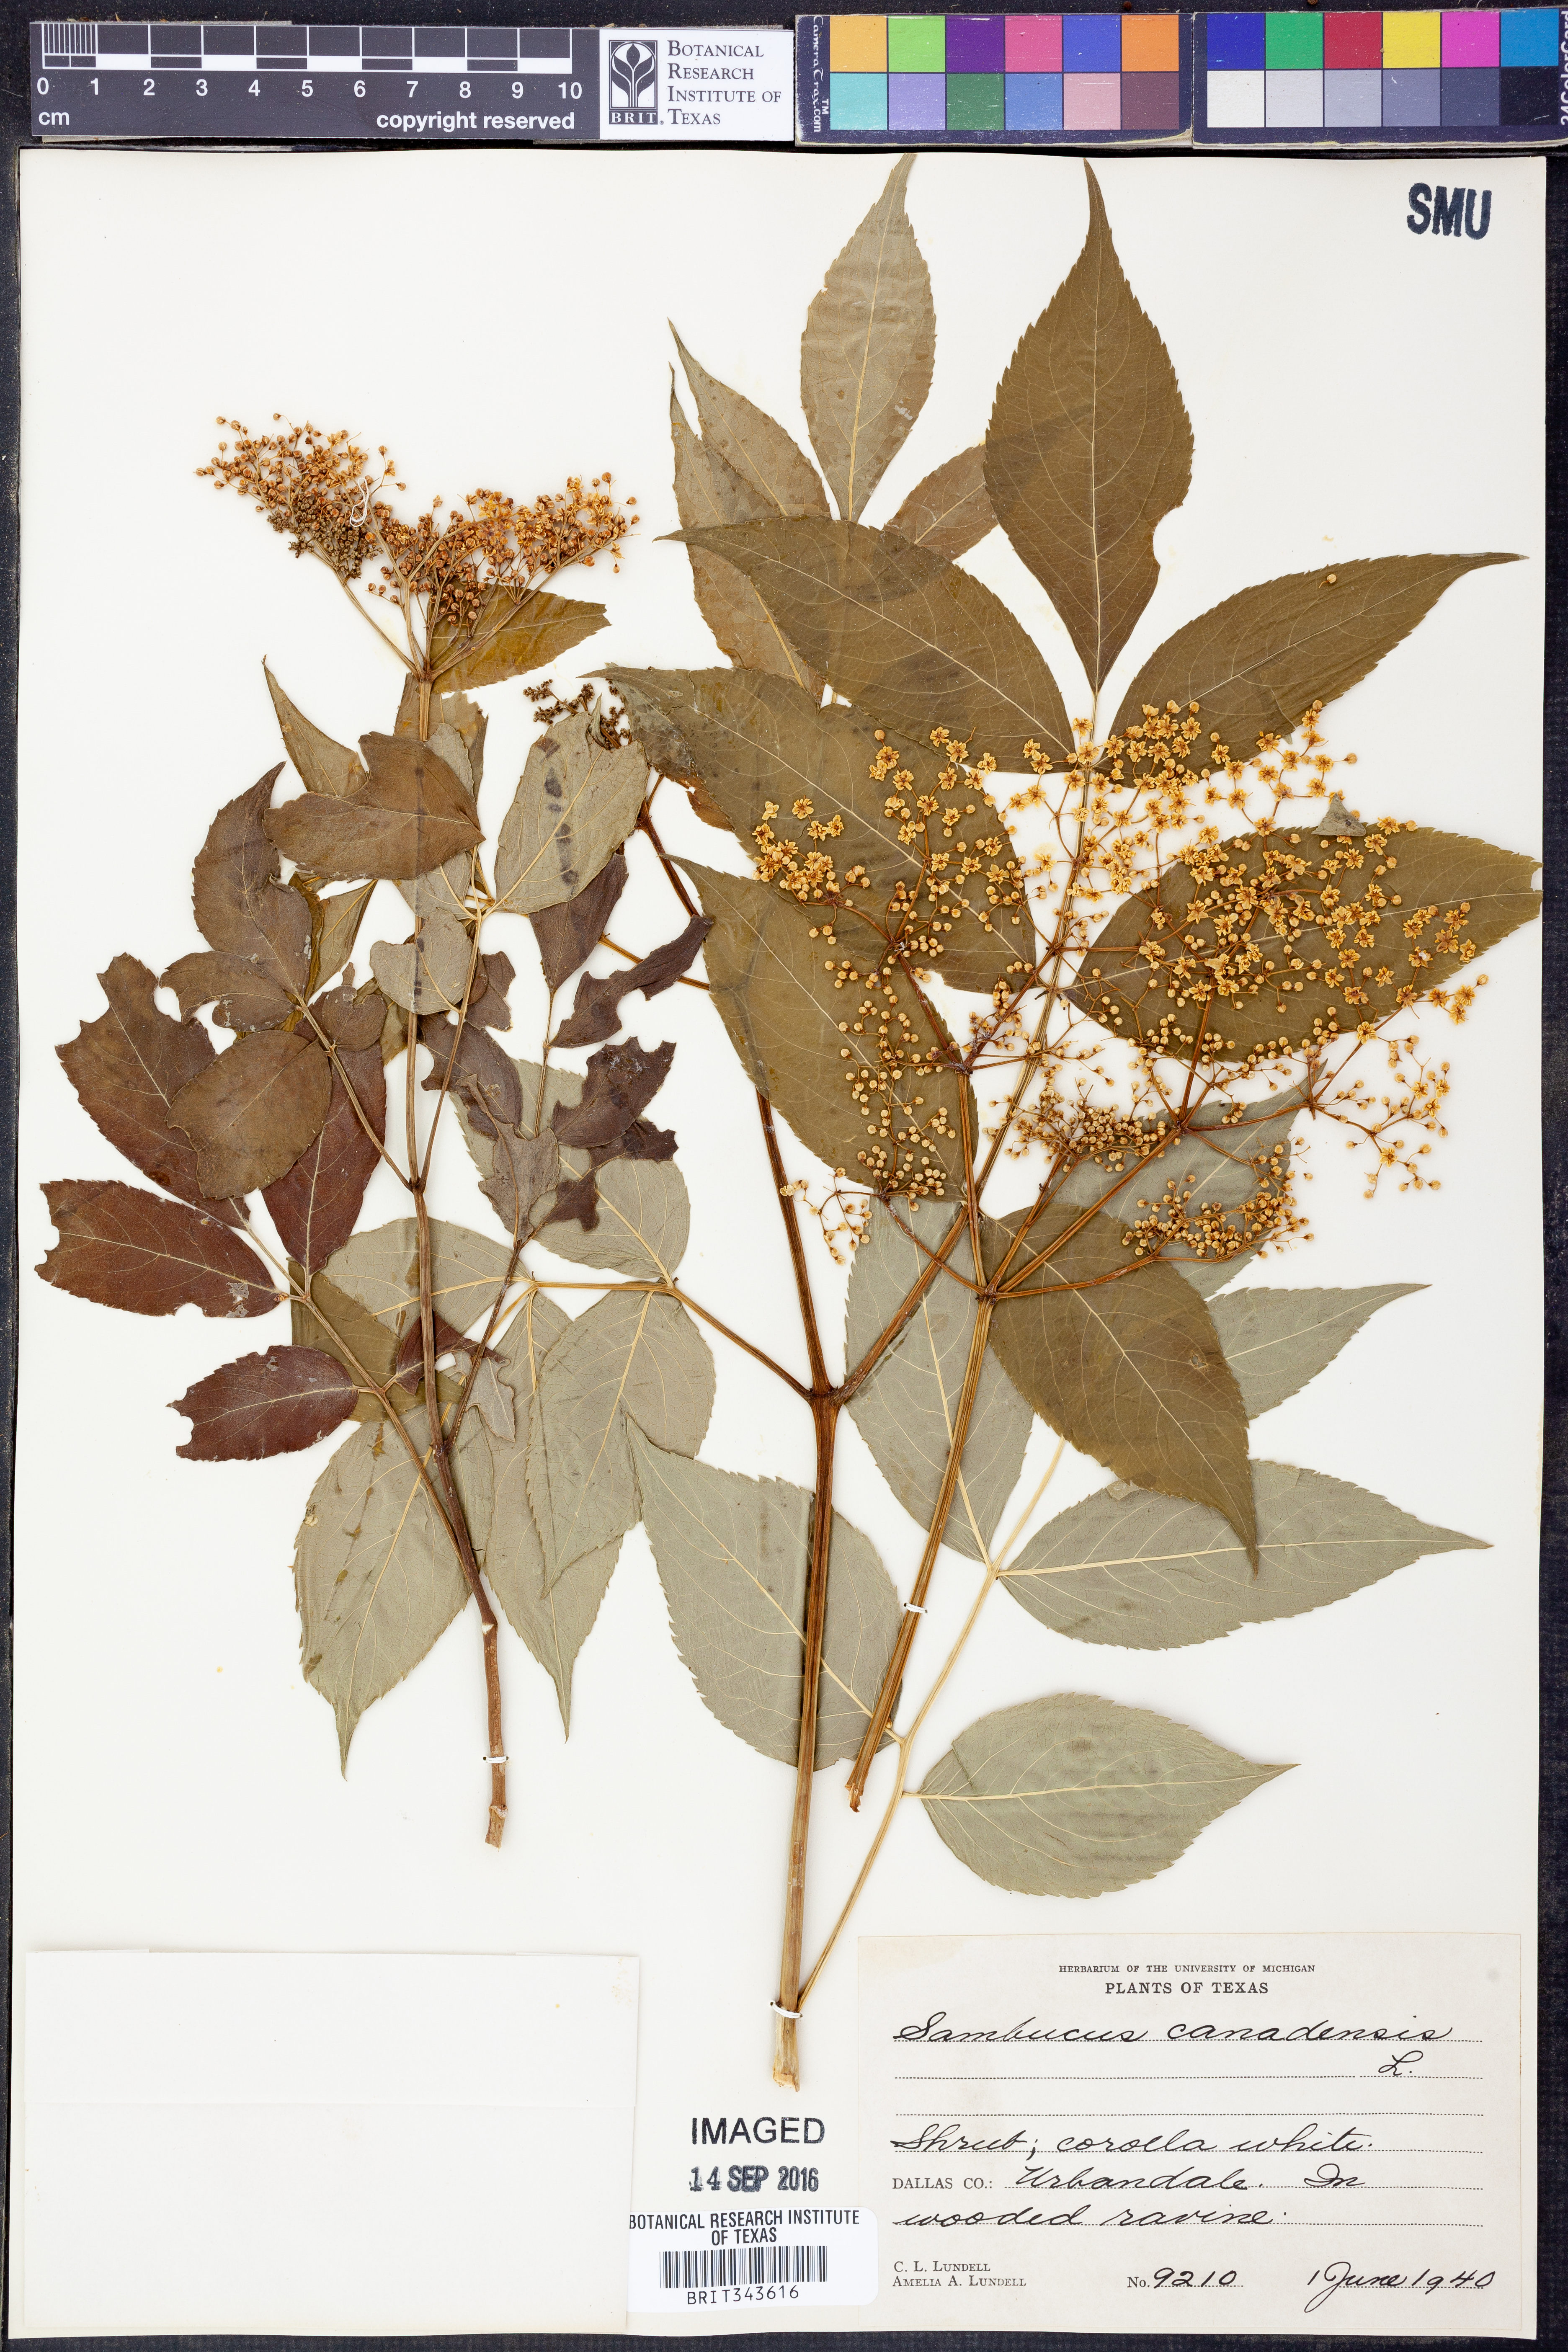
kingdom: Plantae
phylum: Tracheophyta
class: Magnoliopsida
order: Dipsacales
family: Viburnaceae
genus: Sambucus
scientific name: Sambucus canadensis
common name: American elder
